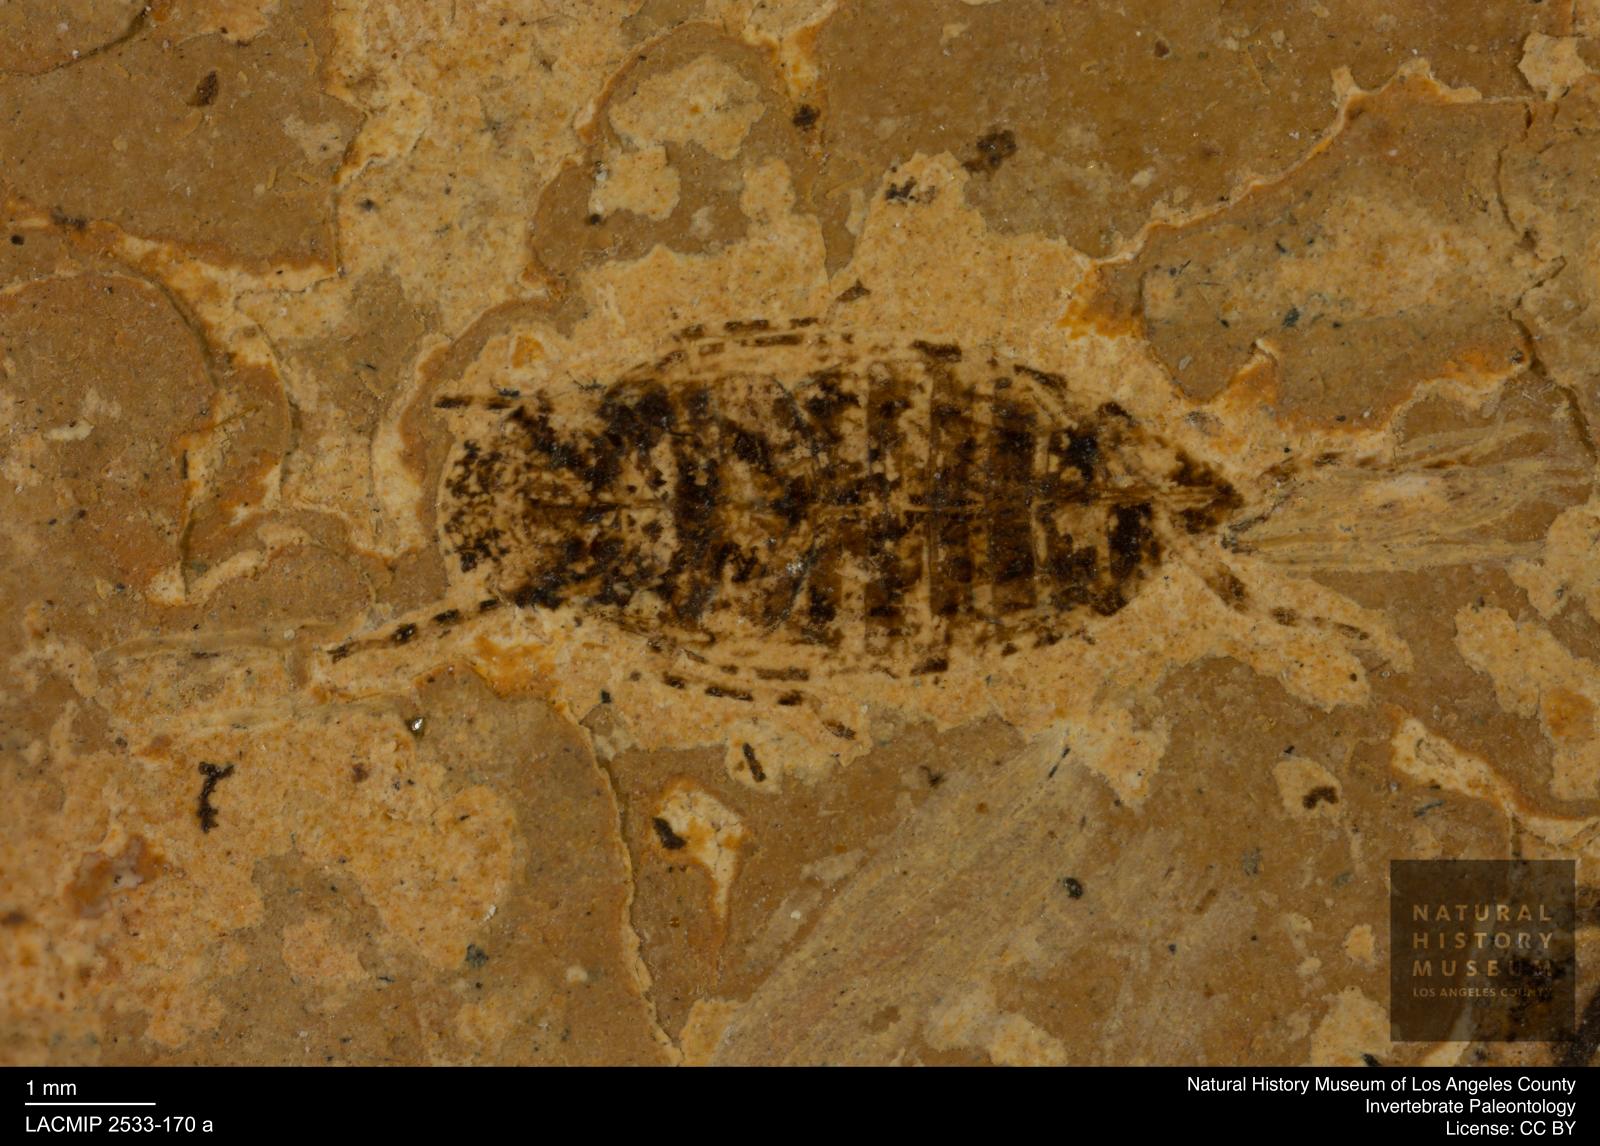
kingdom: Animalia
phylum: Arthropoda
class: Insecta
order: Hemiptera
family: Cicadellidae
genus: Euscelis
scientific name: Euscelis plateosa
